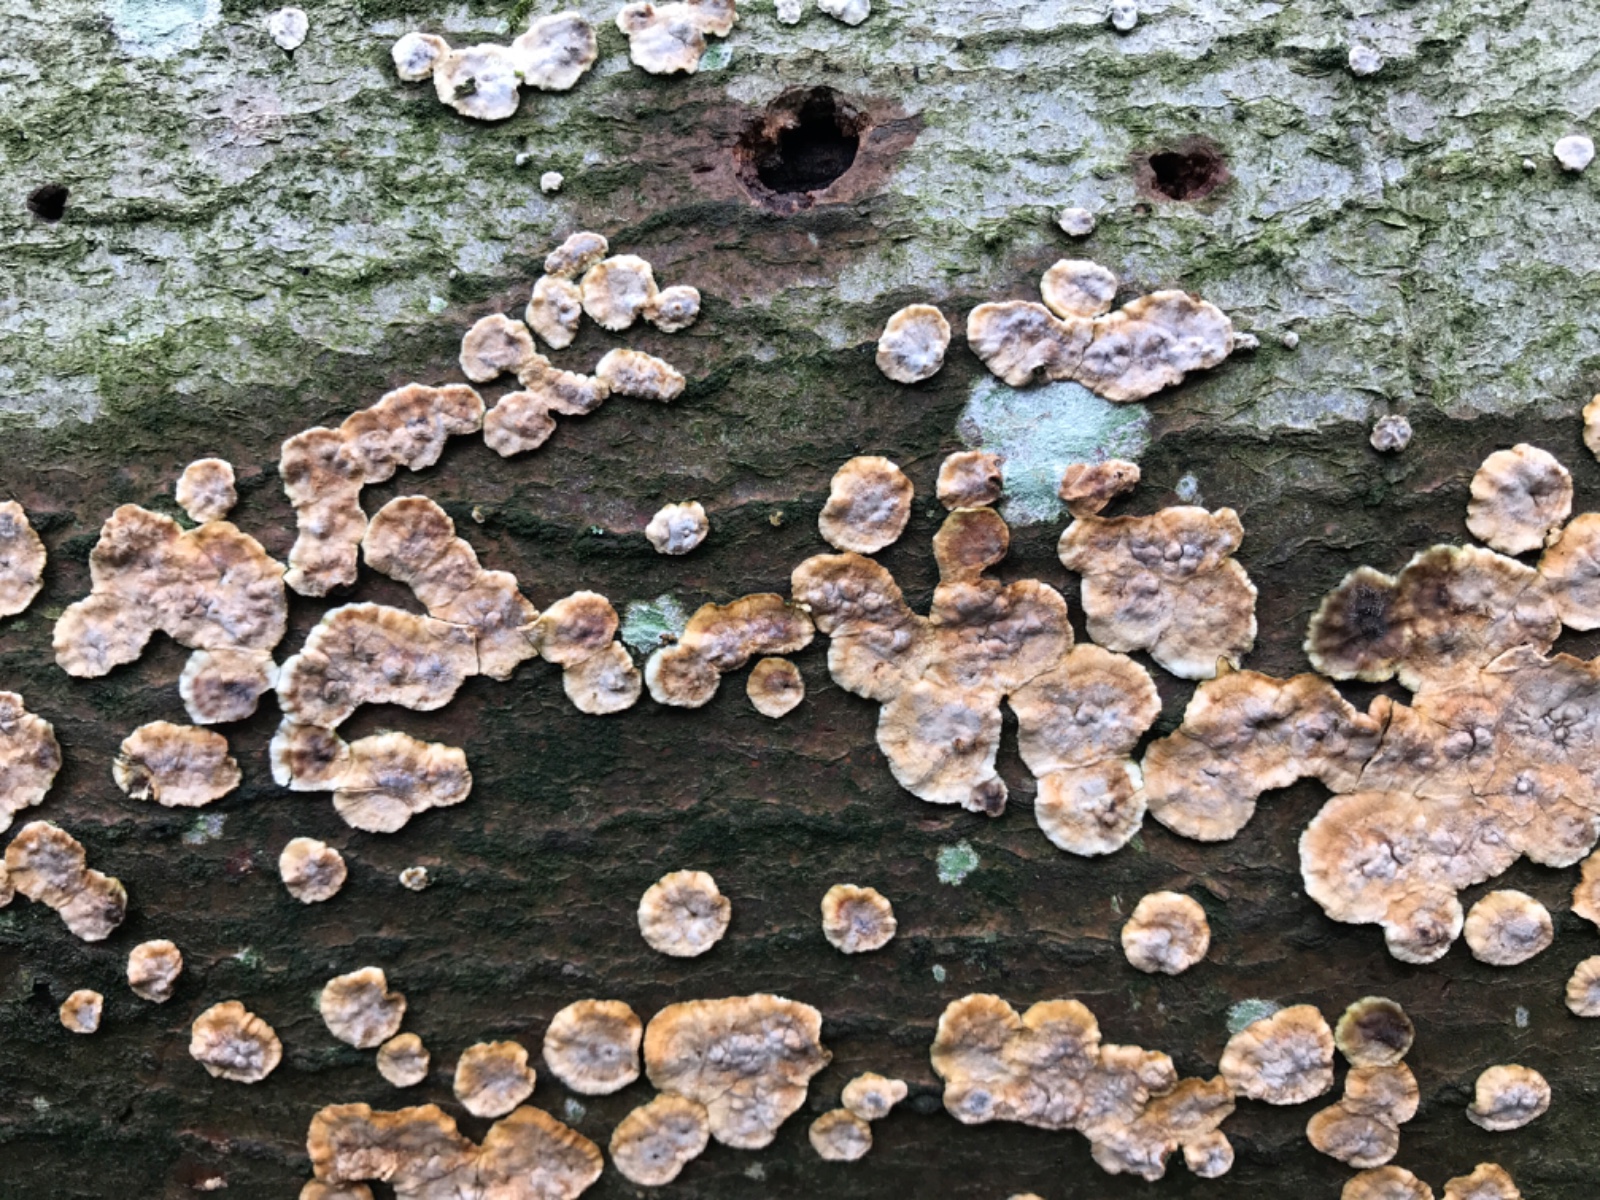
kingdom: Fungi
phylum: Basidiomycota
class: Agaricomycetes
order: Russulales
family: Stereaceae
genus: Stereum
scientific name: Stereum rugosum
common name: rynket lædersvamp
